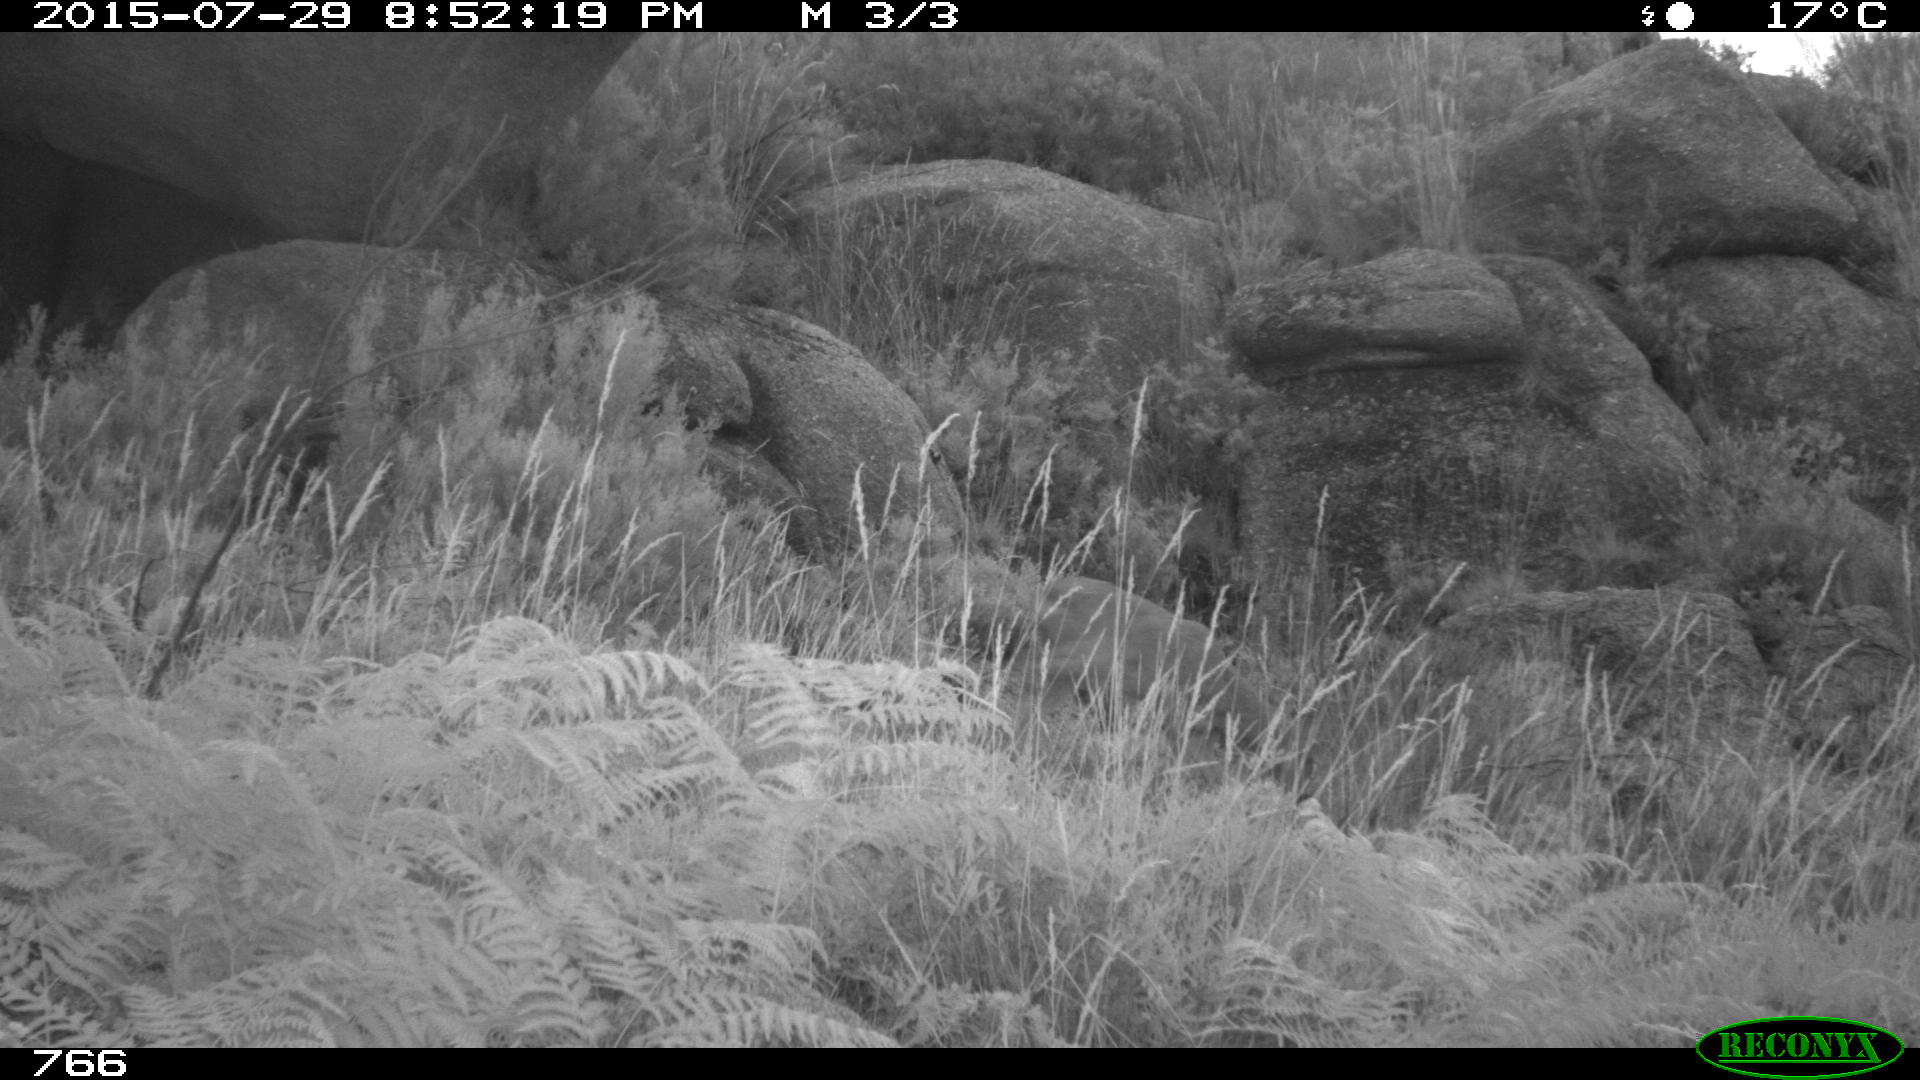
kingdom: Animalia
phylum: Chordata
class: Mammalia
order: Artiodactyla
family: Cervidae
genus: Capreolus
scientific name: Capreolus capreolus
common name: Western roe deer
